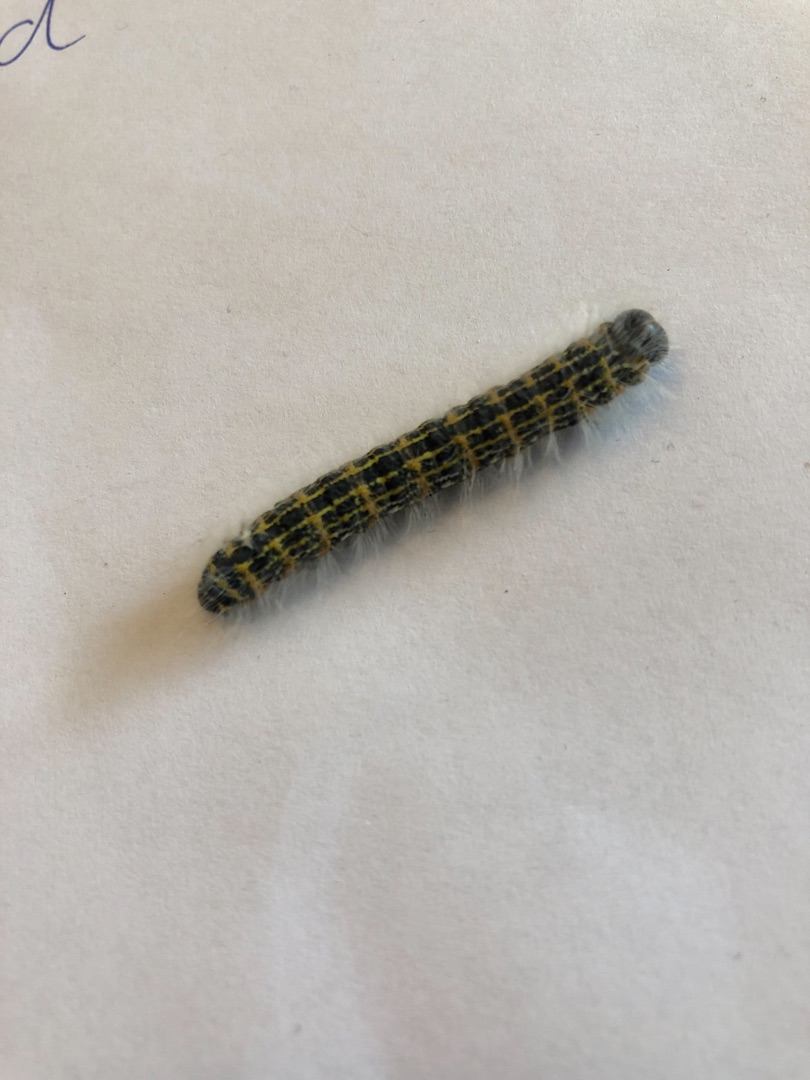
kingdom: Animalia
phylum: Arthropoda
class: Insecta
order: Lepidoptera
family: Notodontidae
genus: Phalera
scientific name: Phalera bucephala
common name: Måneplet
